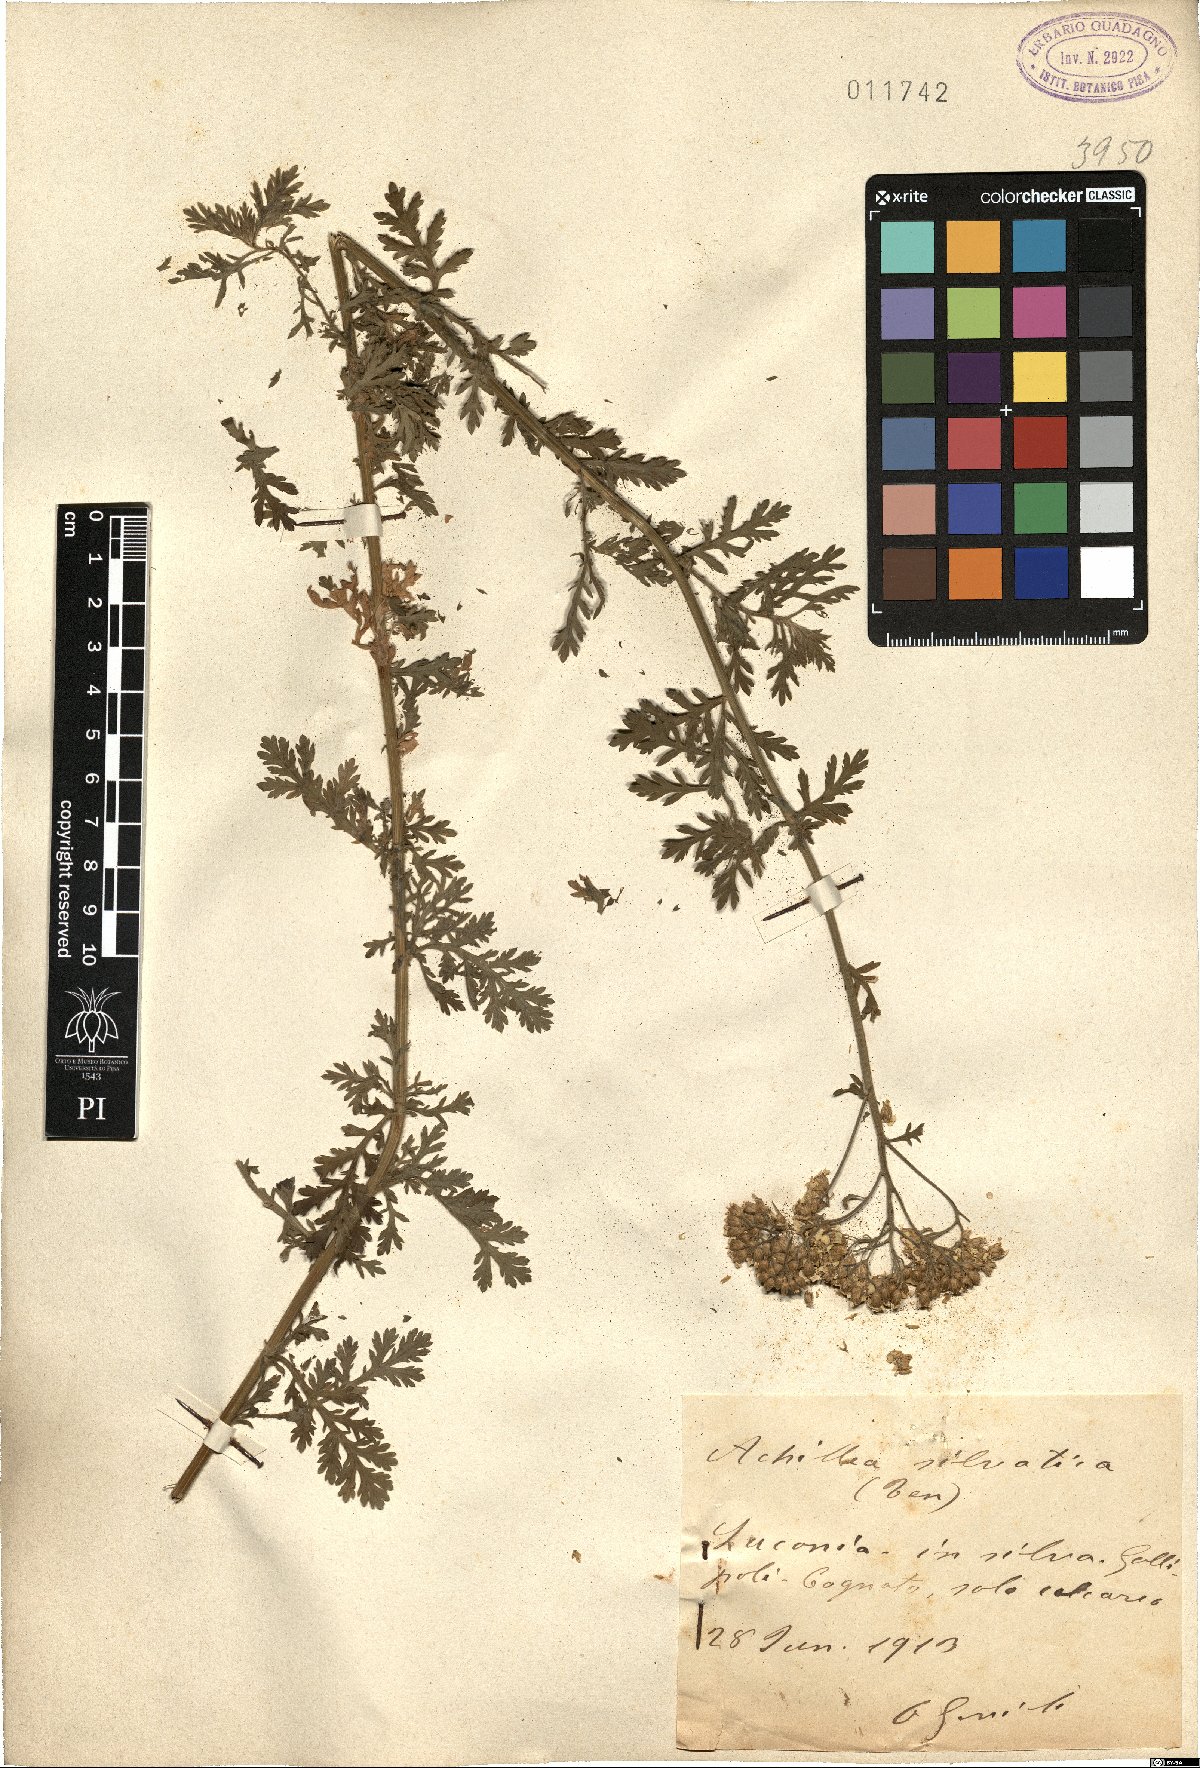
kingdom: Plantae
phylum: Tracheophyta
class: Magnoliopsida
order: Asterales
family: Asteraceae
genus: Achillea
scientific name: Achillea ligustica
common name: Southern yarrow
